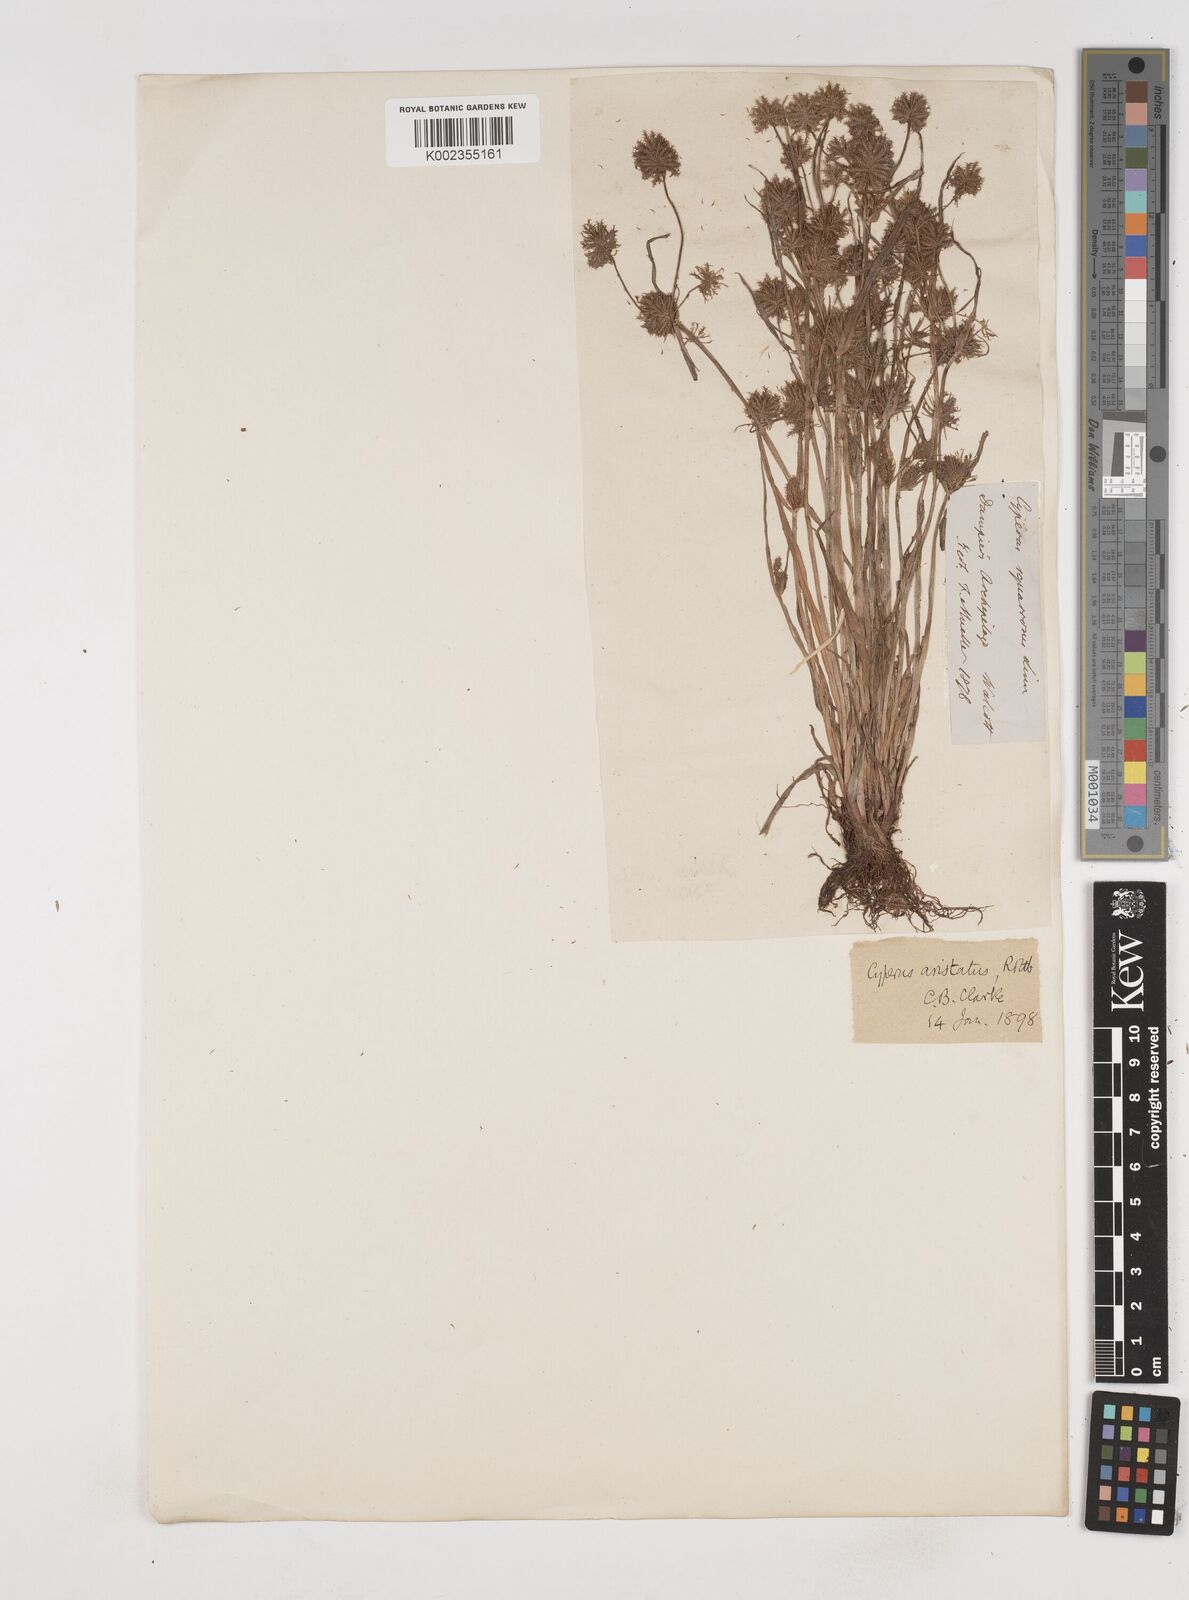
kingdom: Plantae
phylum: Tracheophyta
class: Liliopsida
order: Poales
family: Cyperaceae
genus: Cyperus
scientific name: Cyperus squarrosus
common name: Awned cyperus
